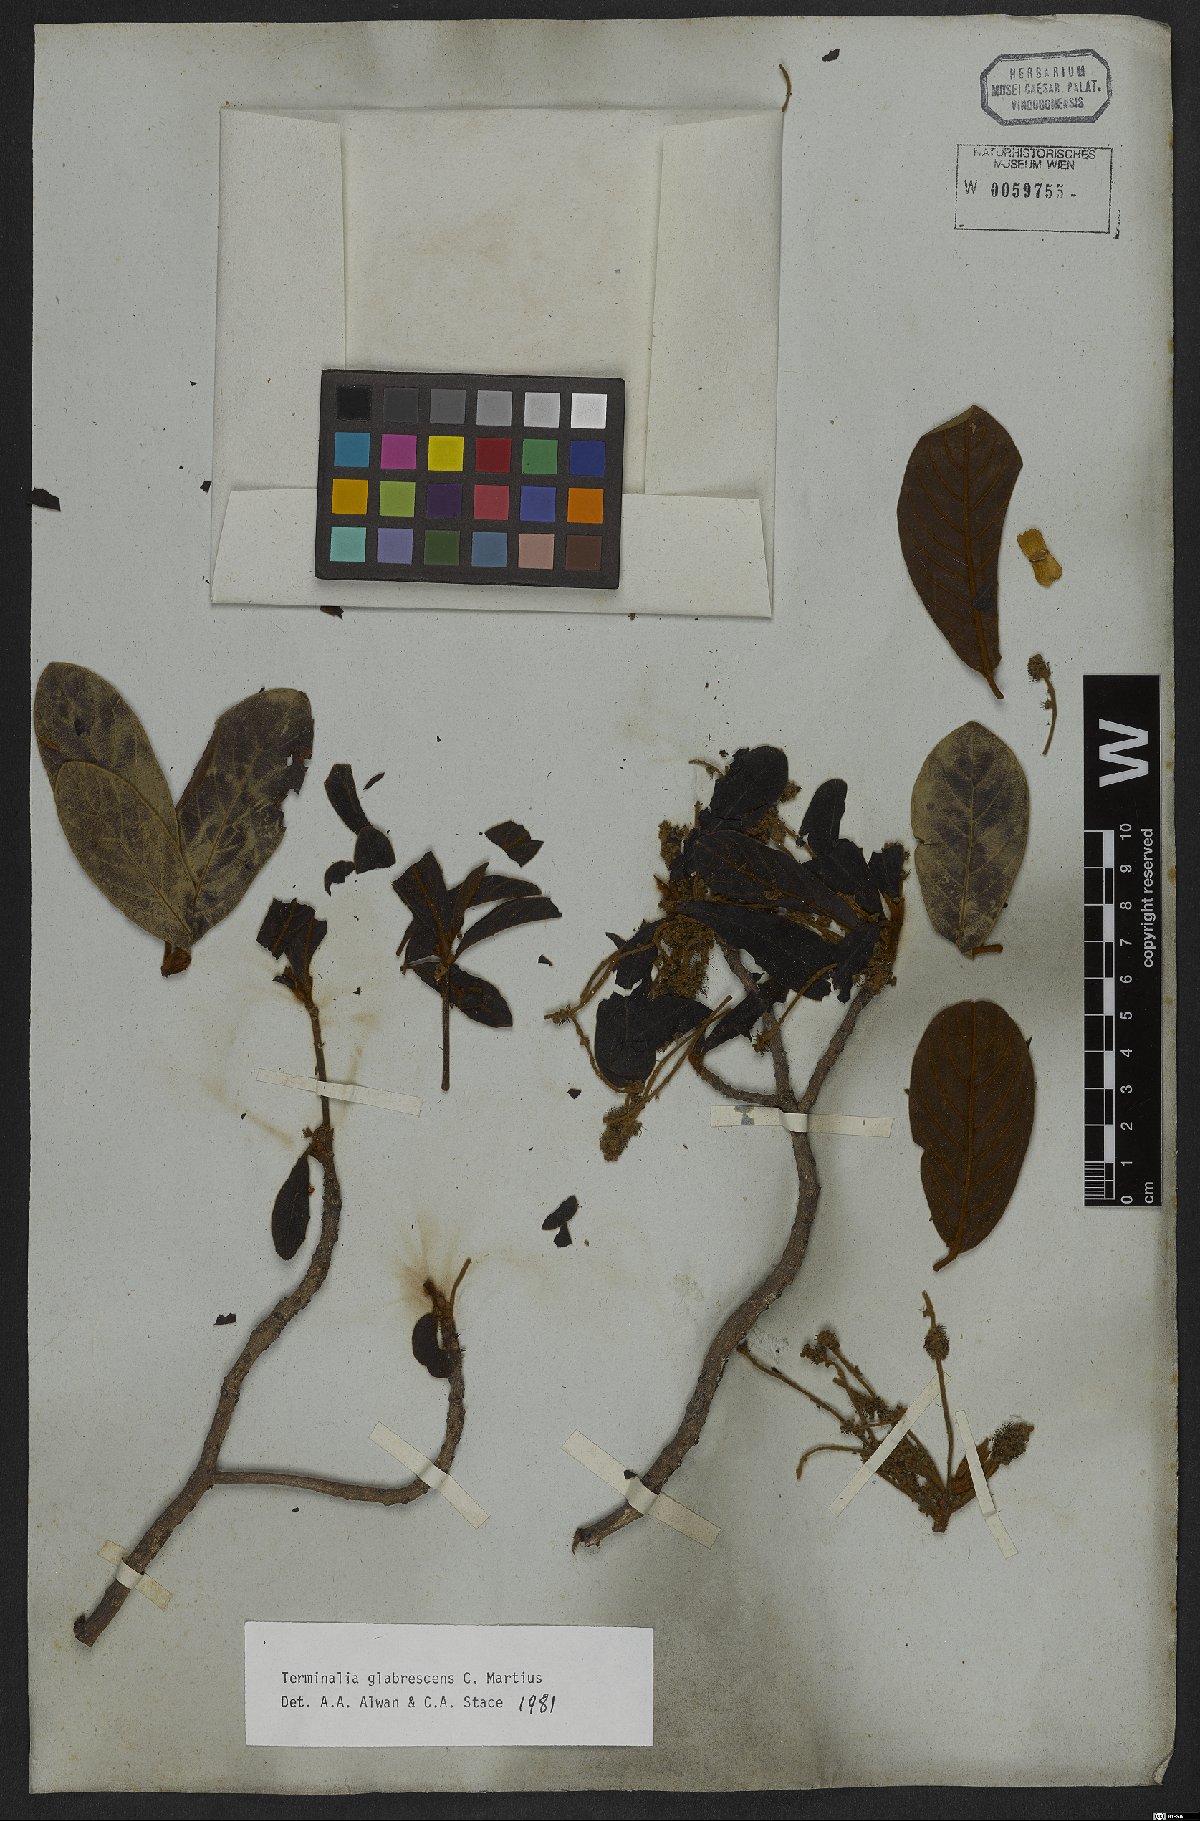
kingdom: Plantae
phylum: Tracheophyta
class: Magnoliopsida
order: Myrtales
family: Combretaceae
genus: Terminalia
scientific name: Terminalia glabrescens
